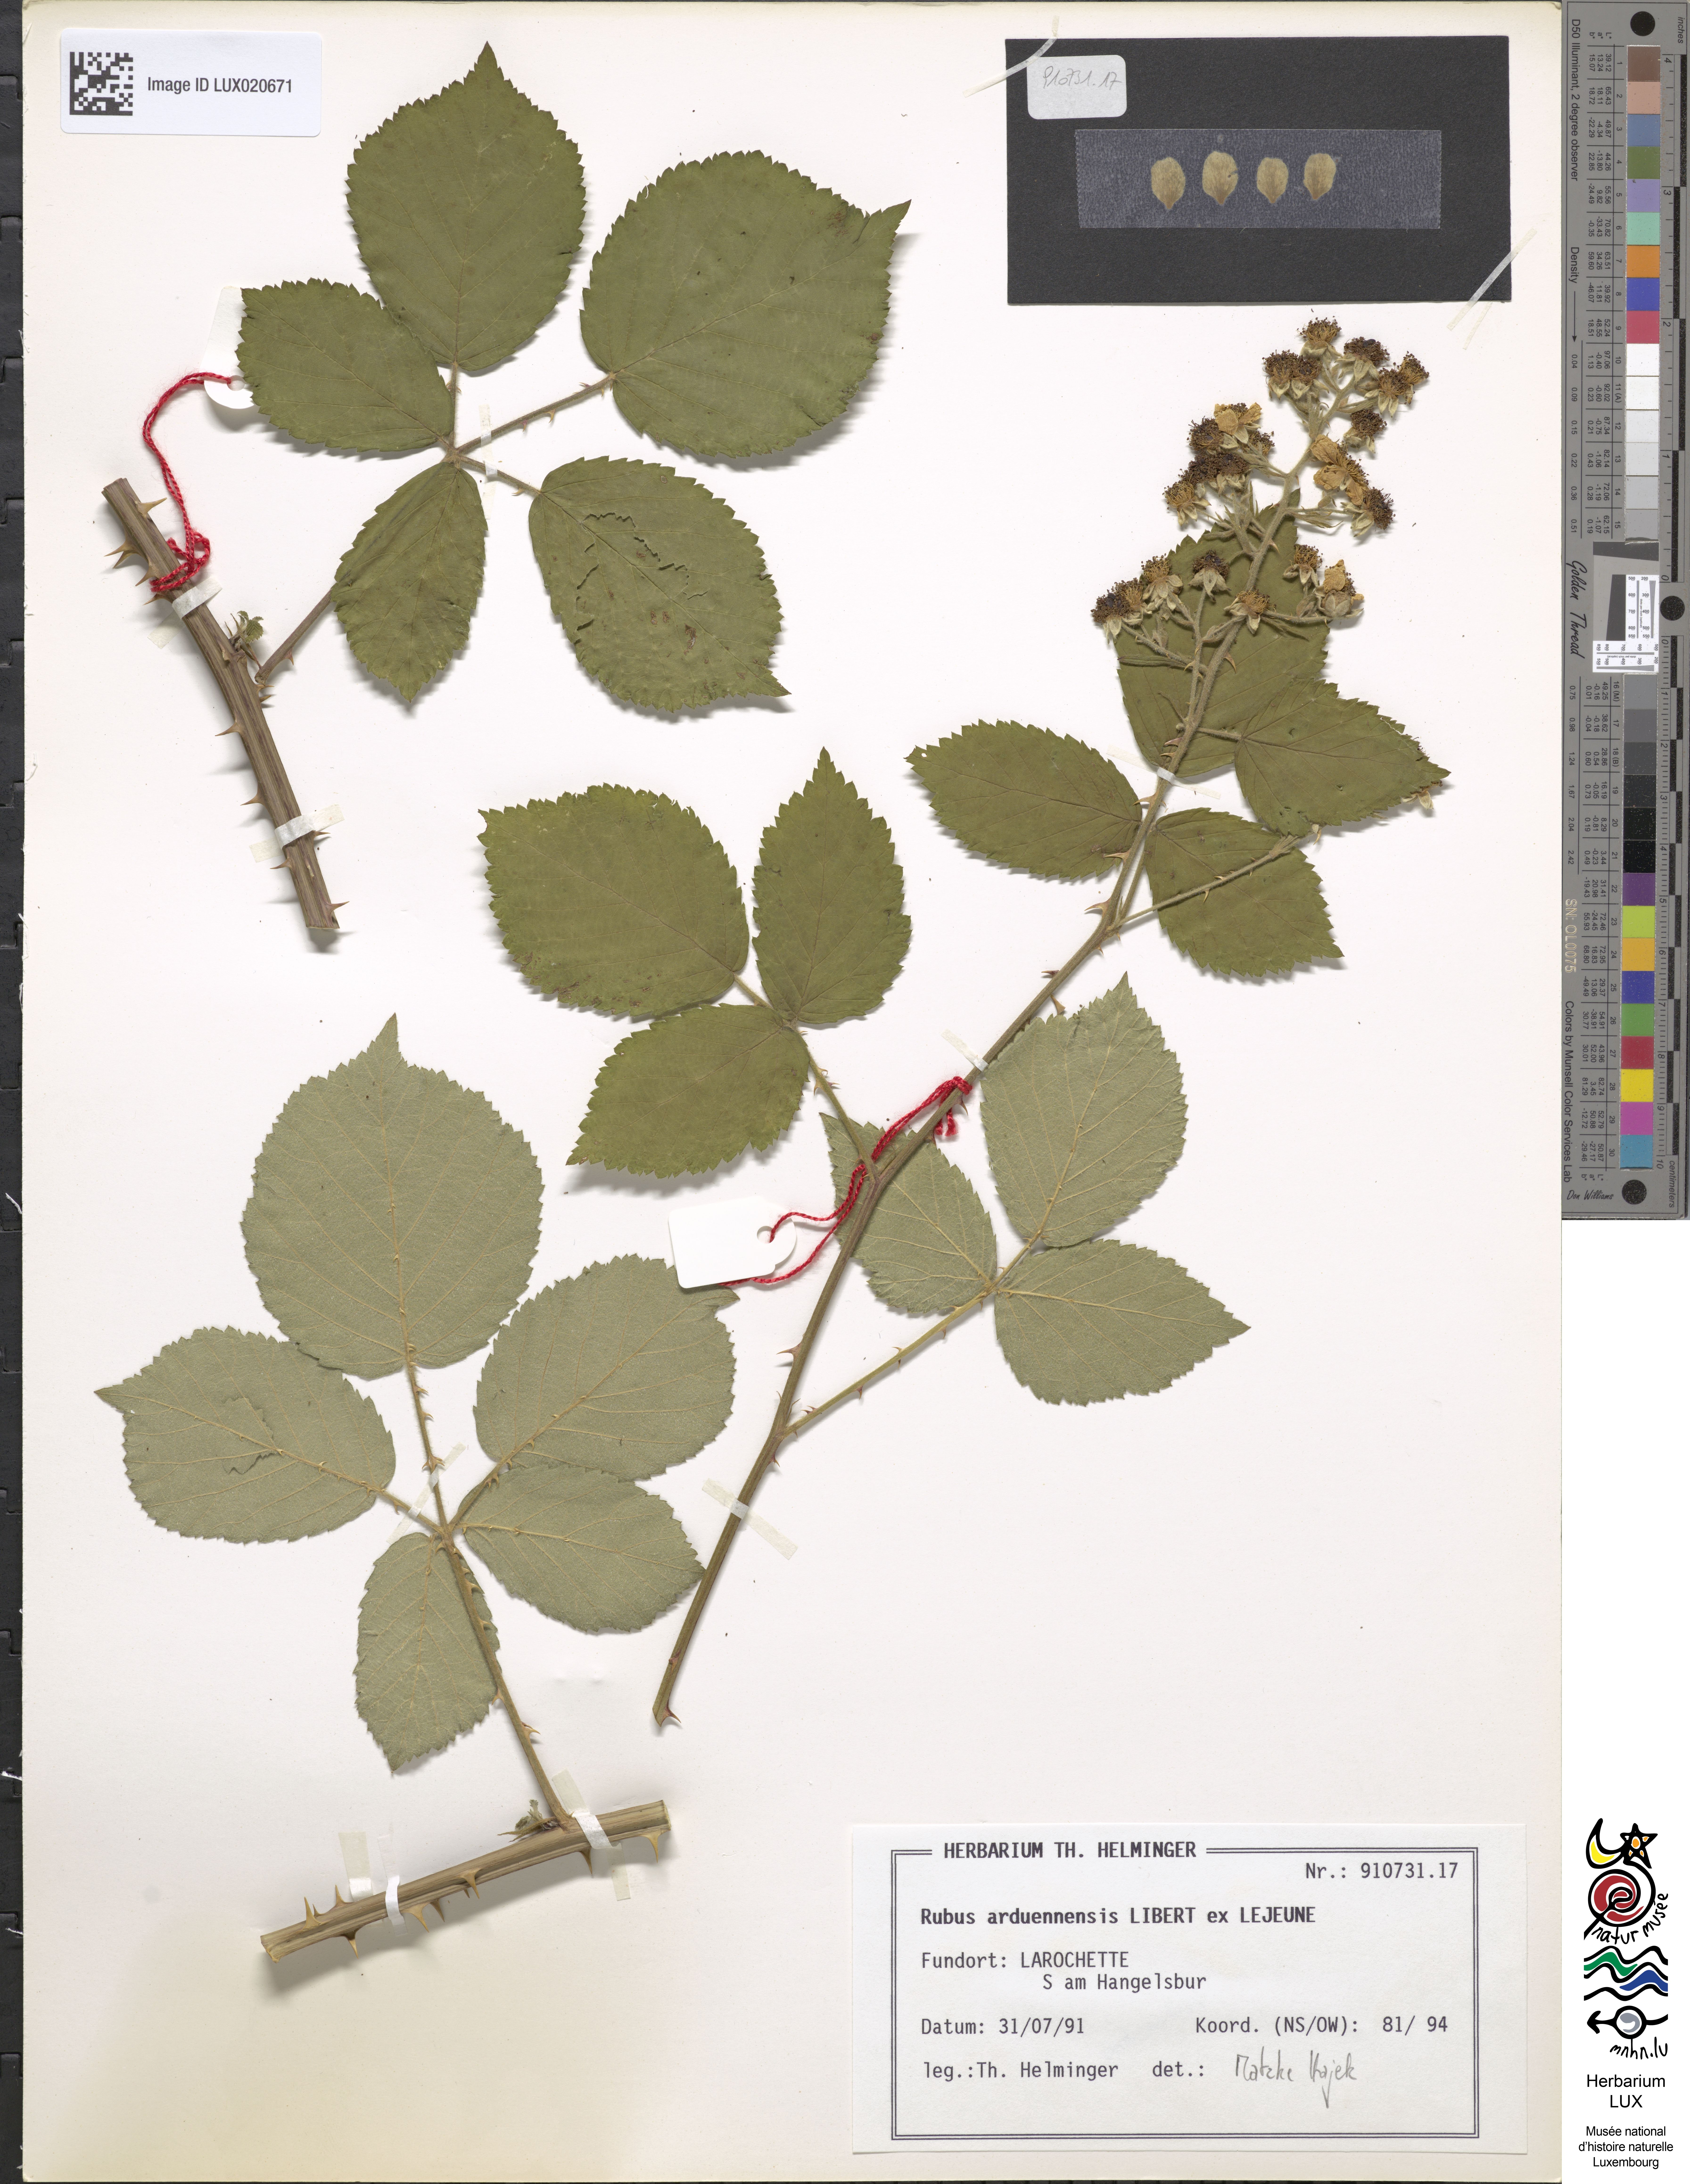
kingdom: Plantae
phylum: Tracheophyta
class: Magnoliopsida
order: Rosales
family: Rosaceae
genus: Rubus
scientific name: Rubus arduennensis
